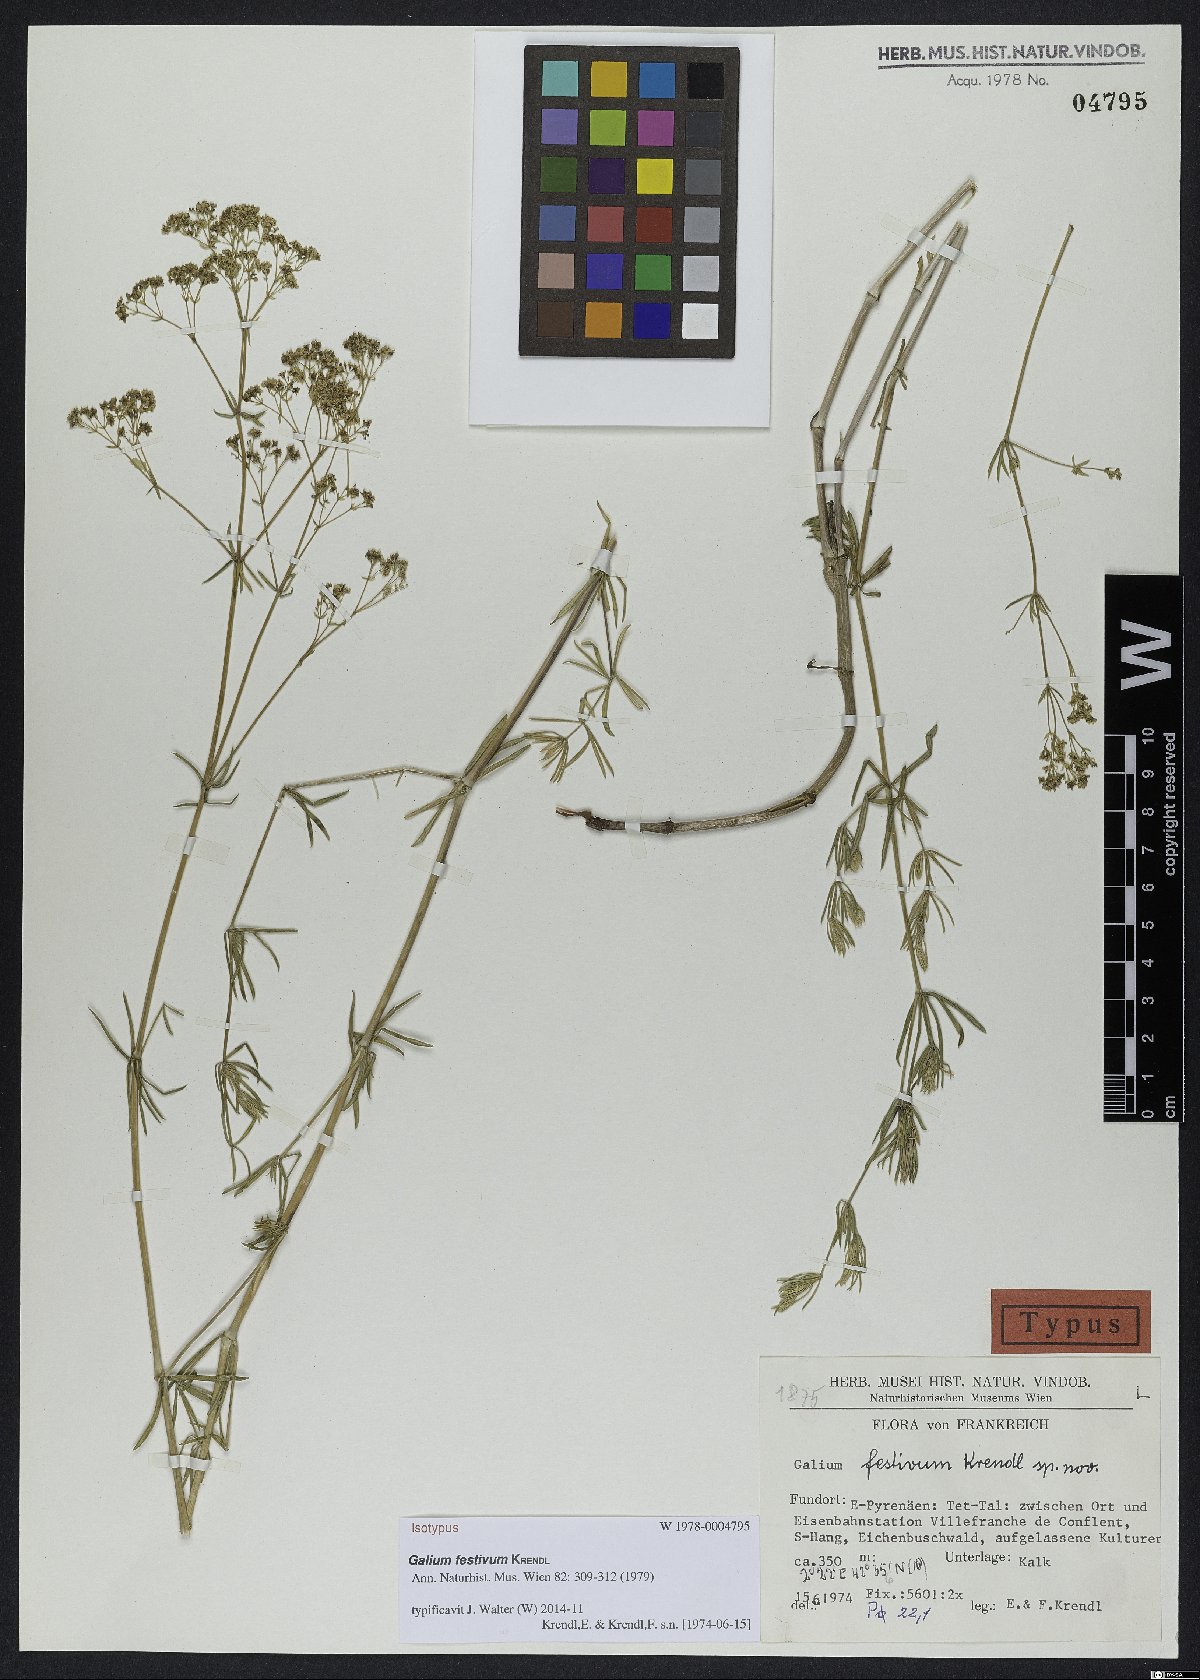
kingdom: Plantae
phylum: Tracheophyta
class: Magnoliopsida
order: Gentianales
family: Rubiaceae
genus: Galium
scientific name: Galium festivum
